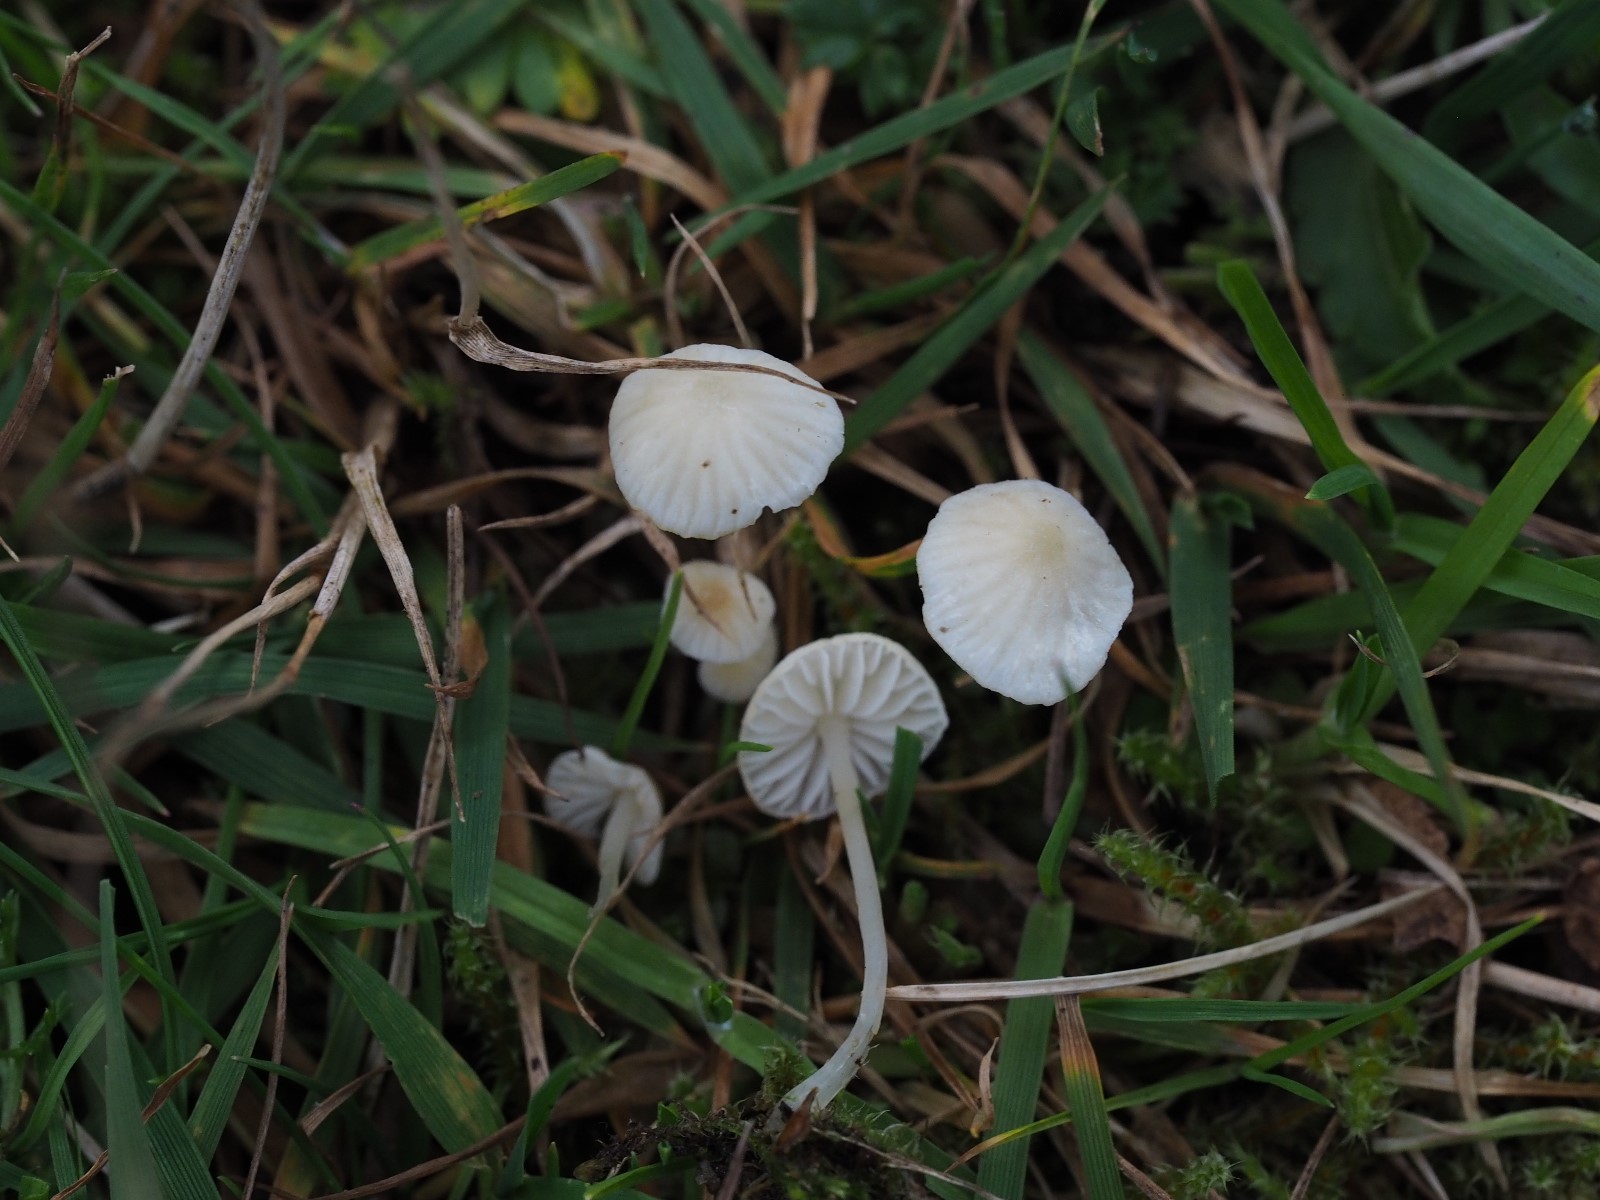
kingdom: Fungi
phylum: Basidiomycota
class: Agaricomycetes
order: Agaricales
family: Mycenaceae
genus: Atheniella
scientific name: Atheniella flavoalba
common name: gulhvid huesvamp
